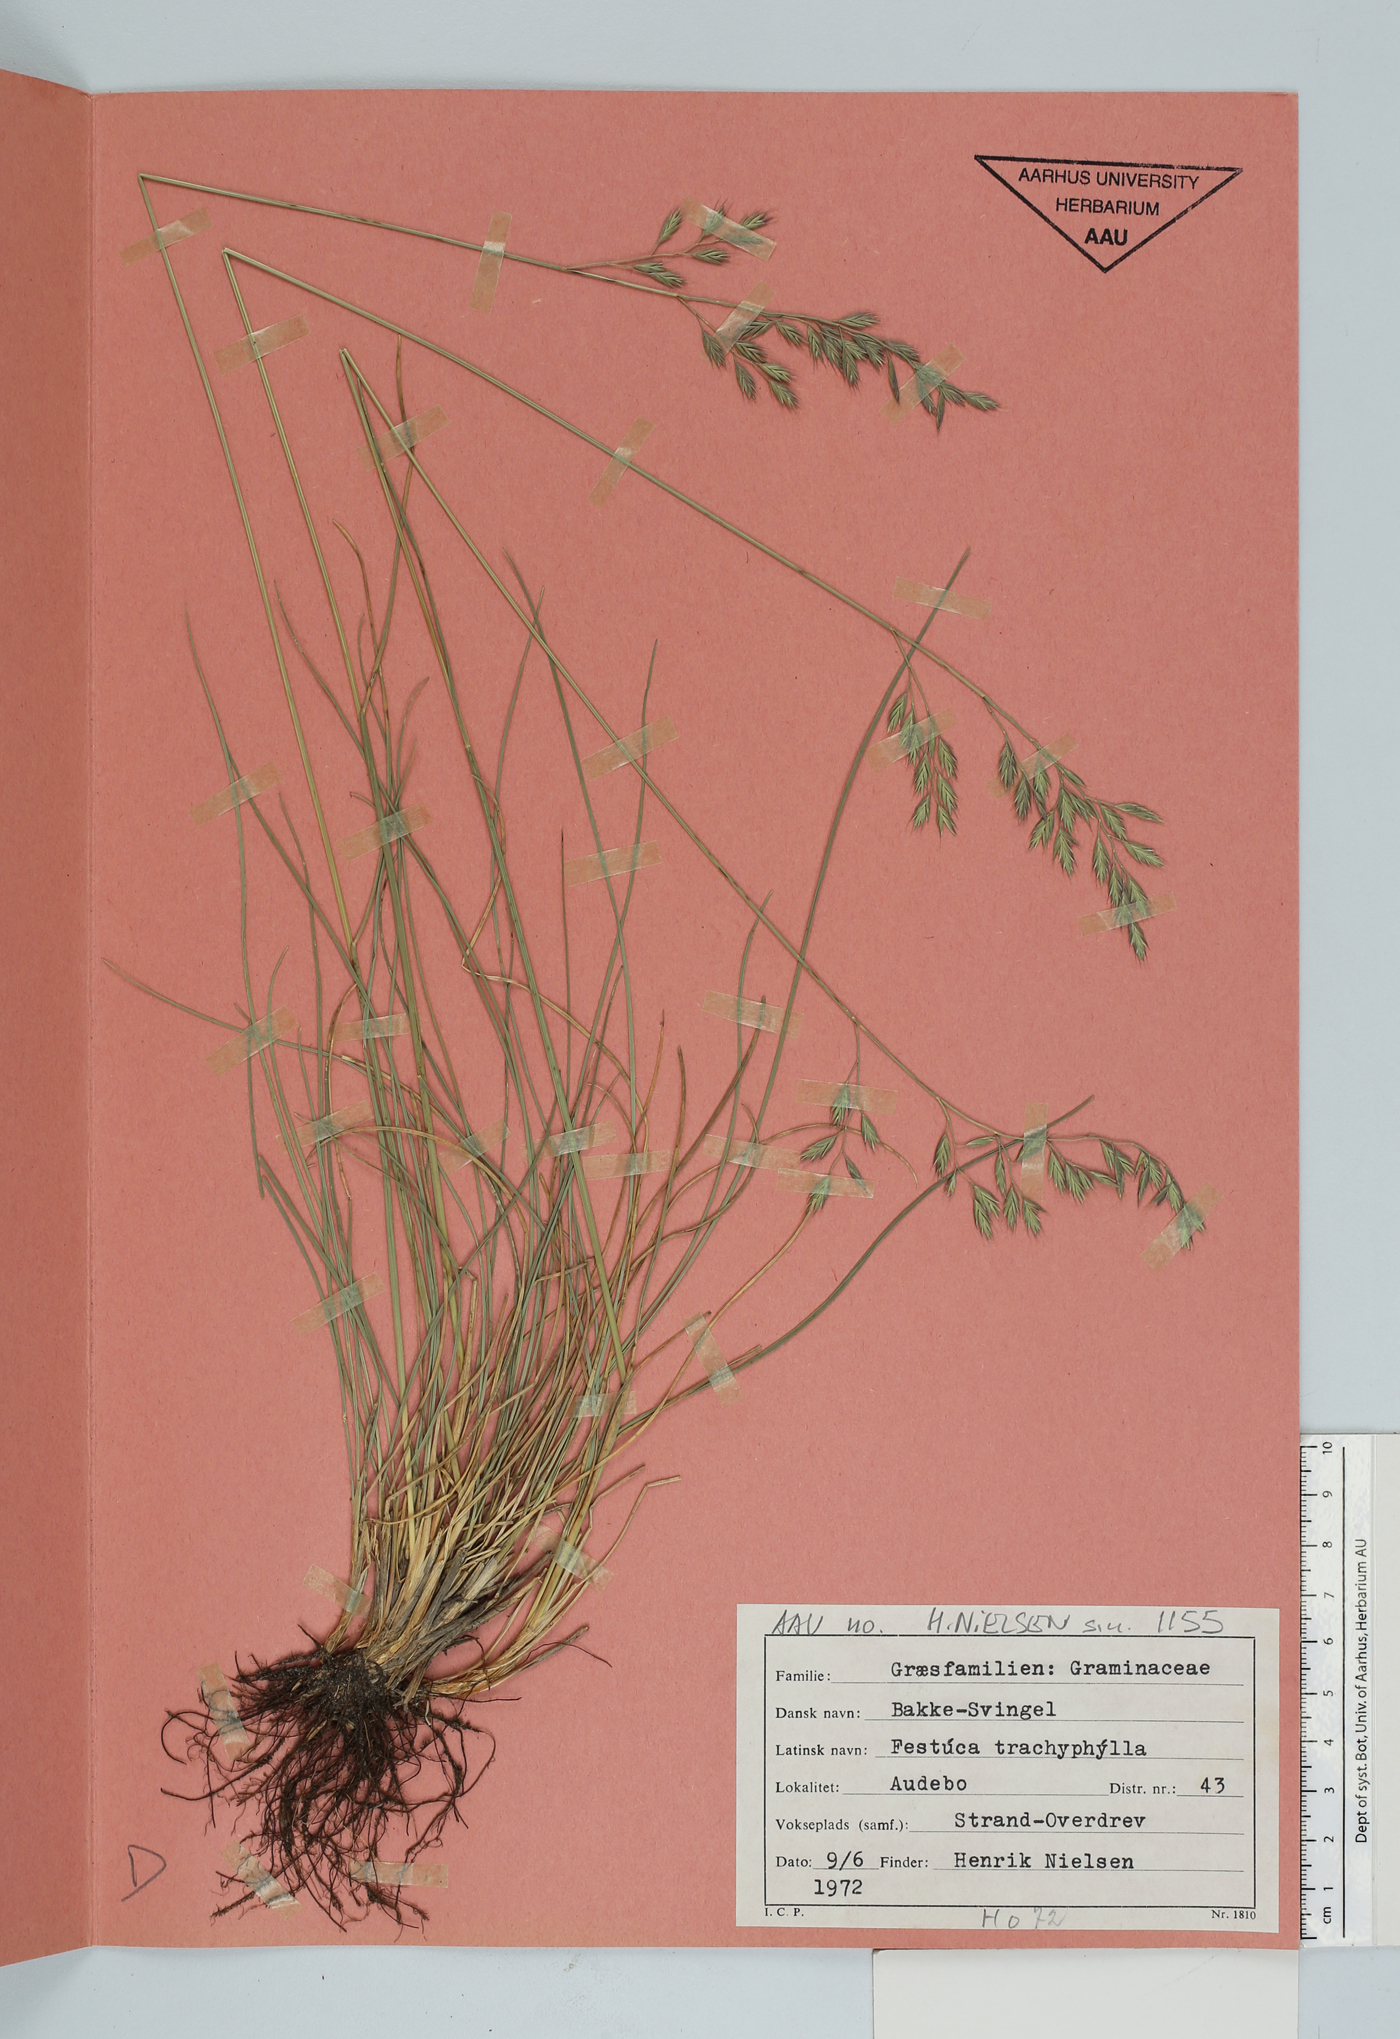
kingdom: Plantae
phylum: Tracheophyta
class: Liliopsida
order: Poales
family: Poaceae
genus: Festuca
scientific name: Festuca trachyphylla
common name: Hard fescue
